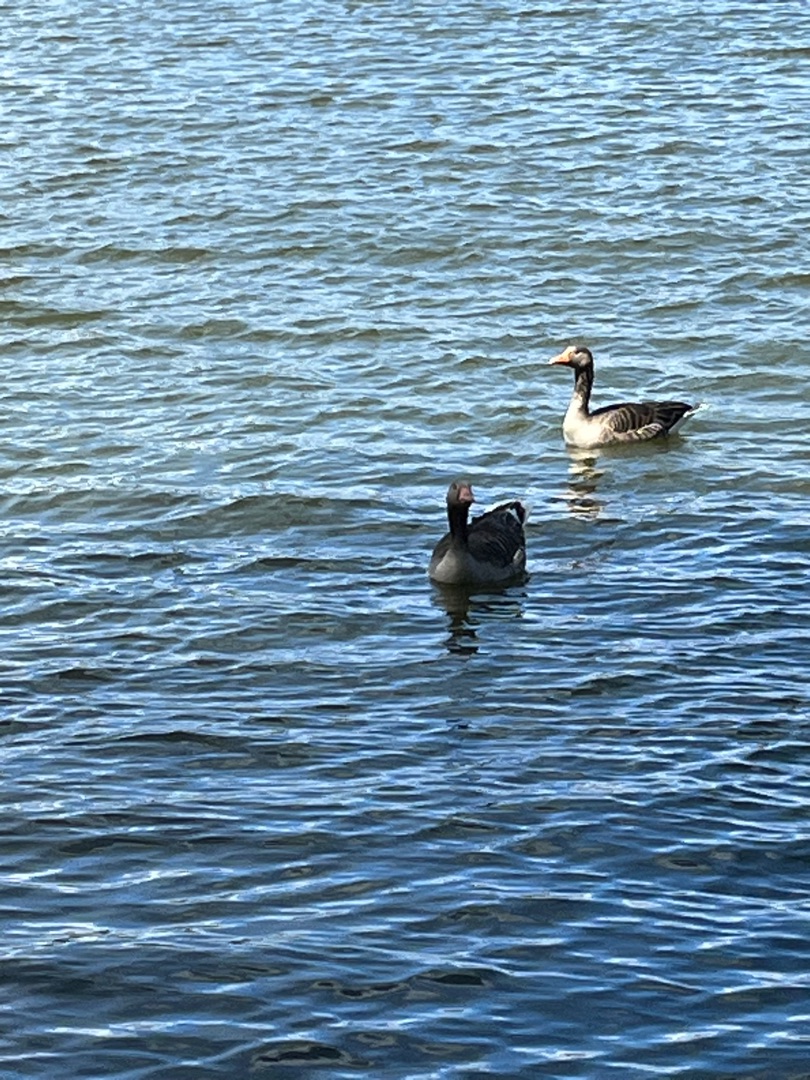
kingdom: Animalia
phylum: Chordata
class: Aves
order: Anseriformes
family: Anatidae
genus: Anser
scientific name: Anser anser
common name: Grågås
